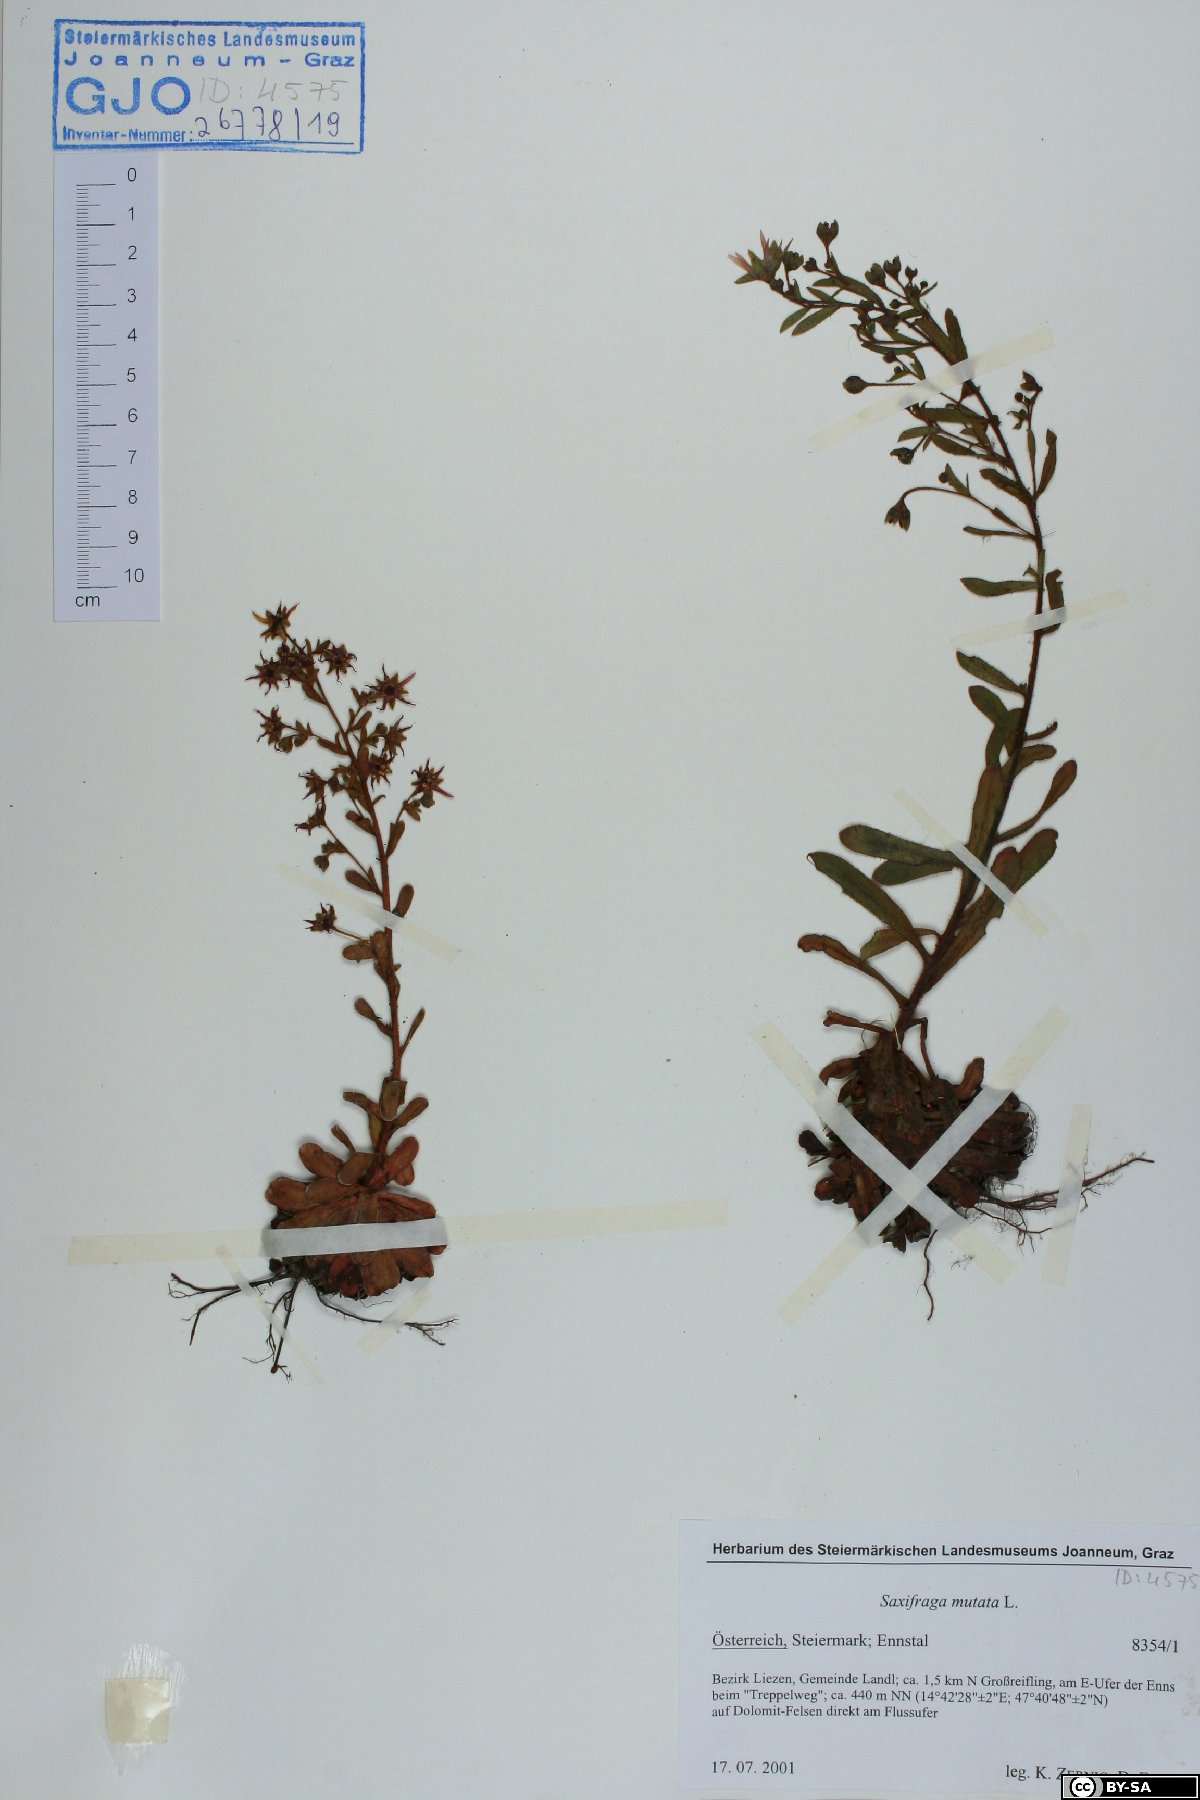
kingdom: Plantae
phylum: Tracheophyta
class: Magnoliopsida
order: Saxifragales
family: Saxifragaceae
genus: Saxifraga
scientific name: Saxifraga mutata
